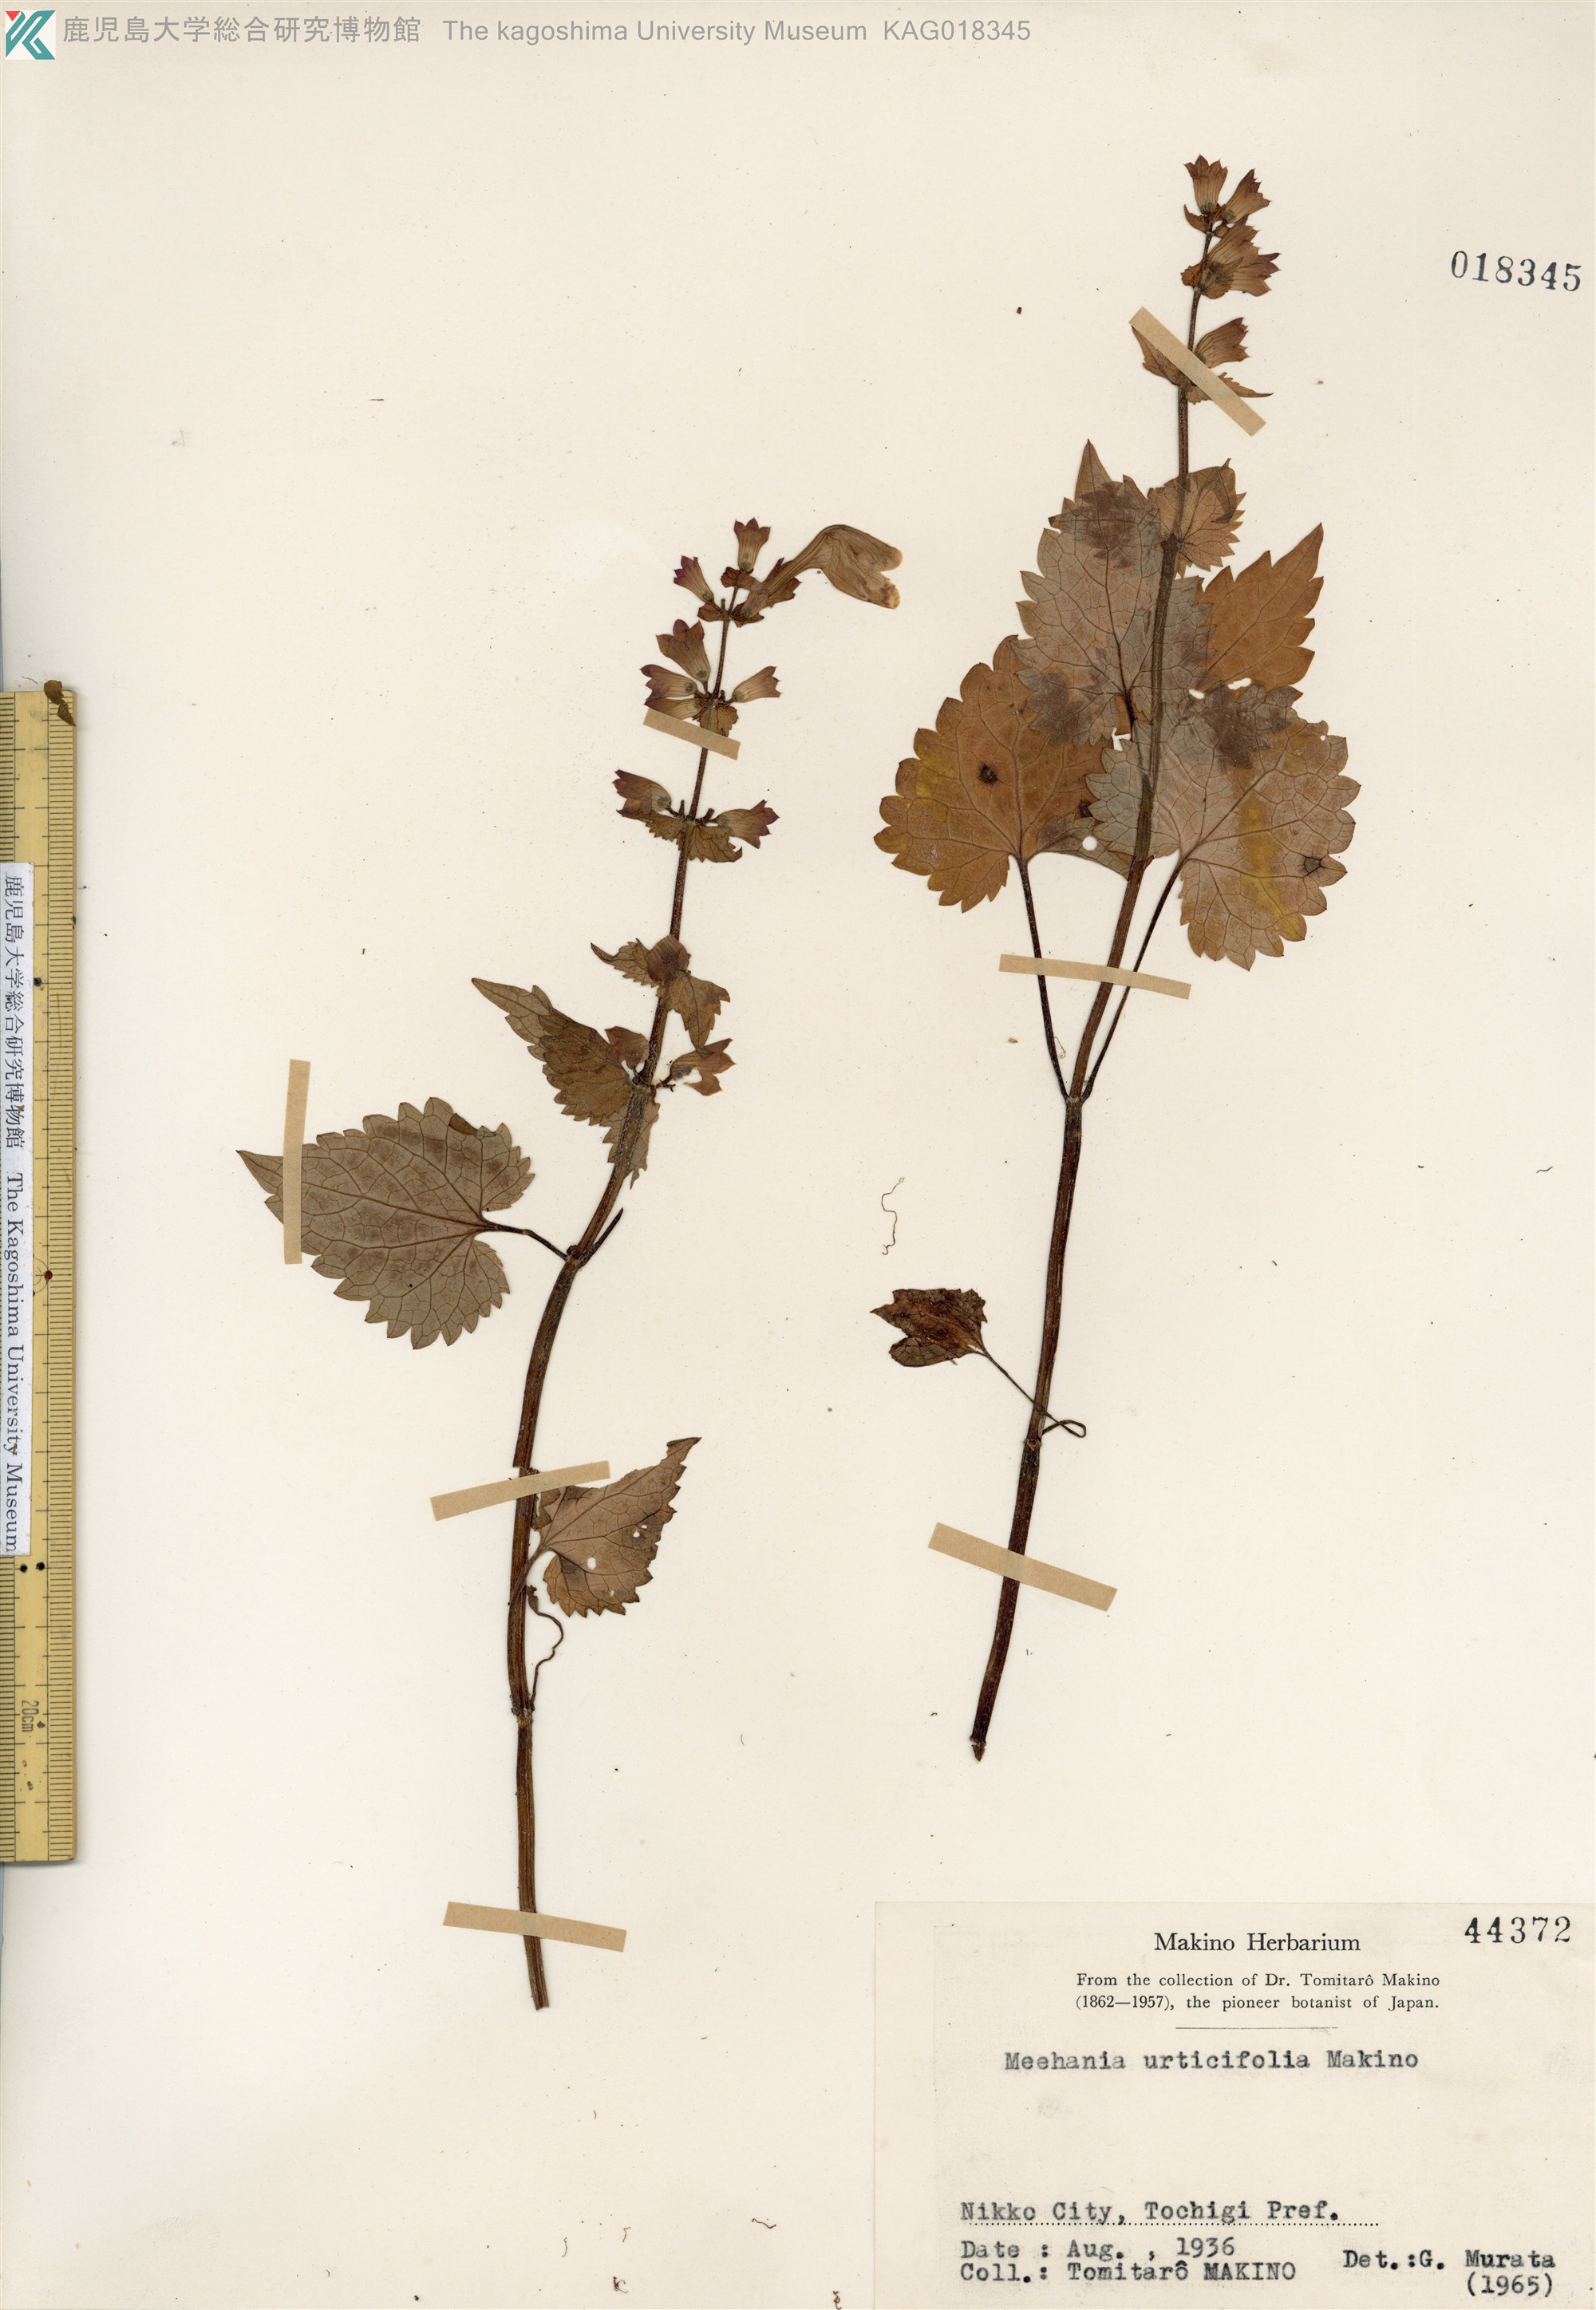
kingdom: Plantae
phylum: Tracheophyta
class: Magnoliopsida
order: Lamiales
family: Lamiaceae
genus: Meehania
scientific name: Meehania urticifolia
